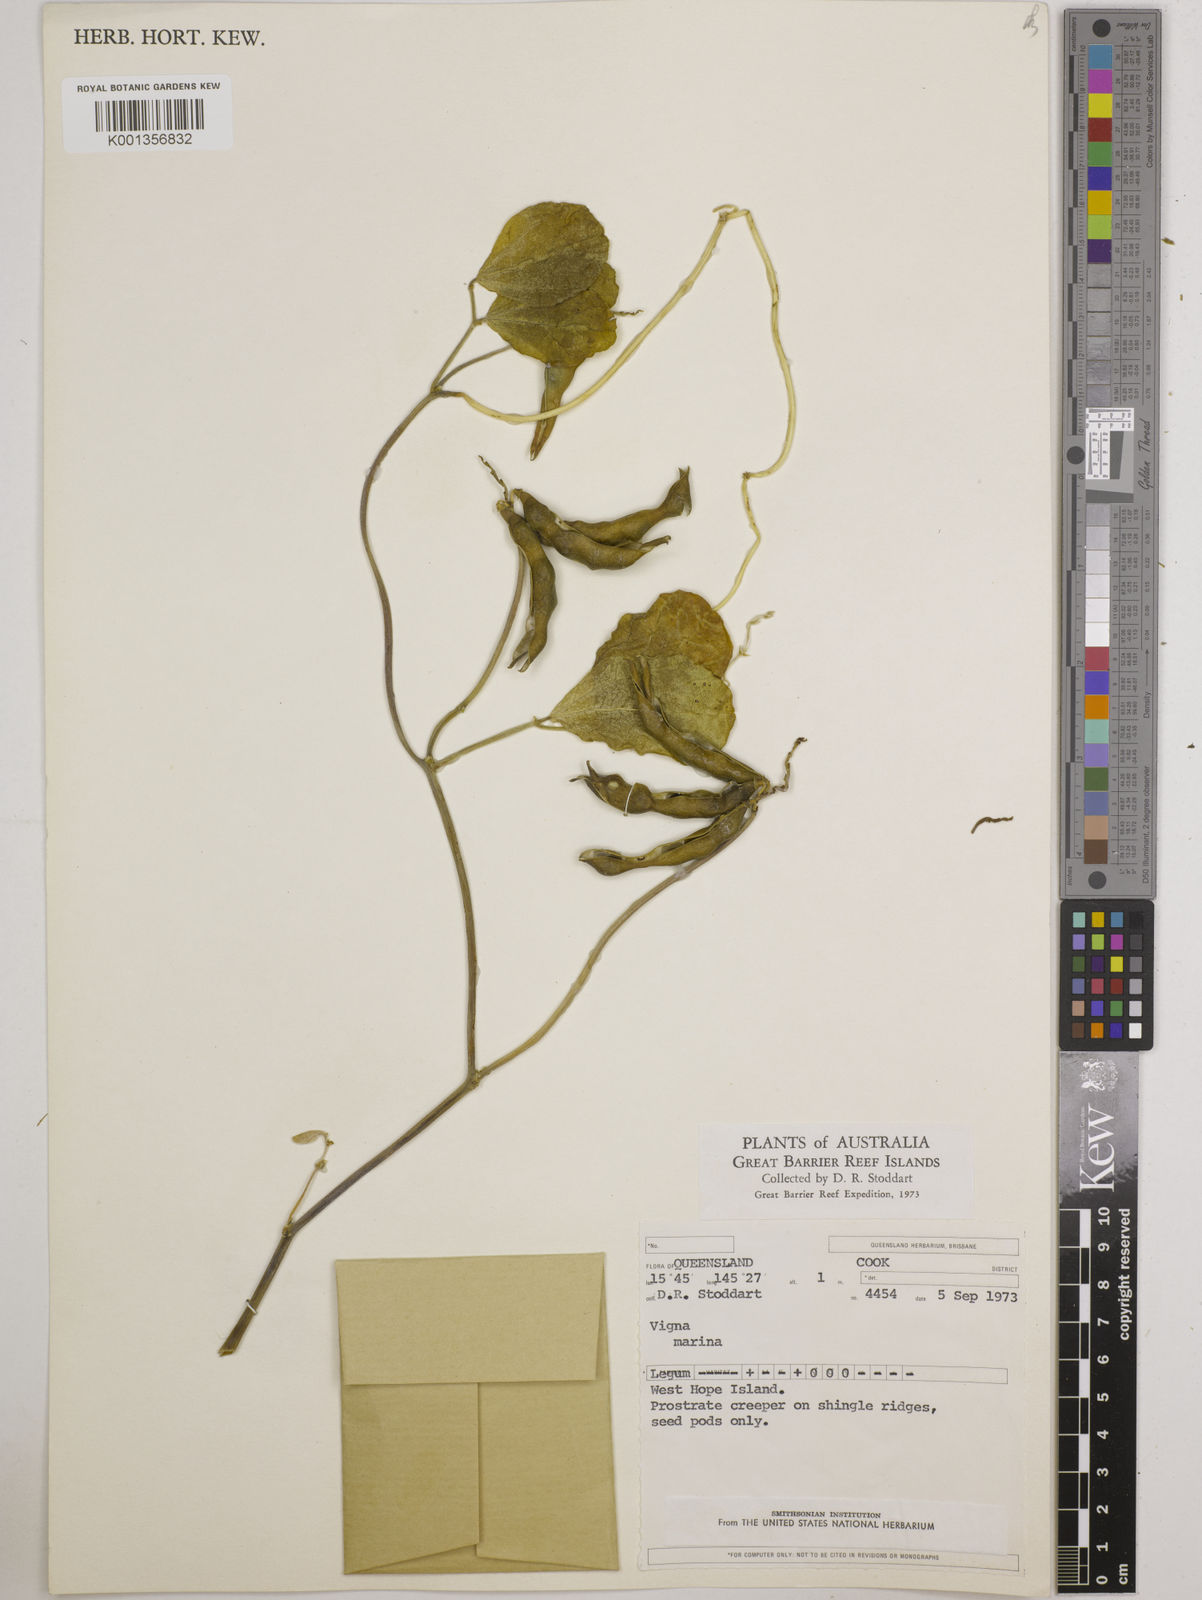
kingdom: Plantae
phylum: Tracheophyta
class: Magnoliopsida
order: Fabales
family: Fabaceae
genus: Vigna
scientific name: Vigna marina
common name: Dune-bean
